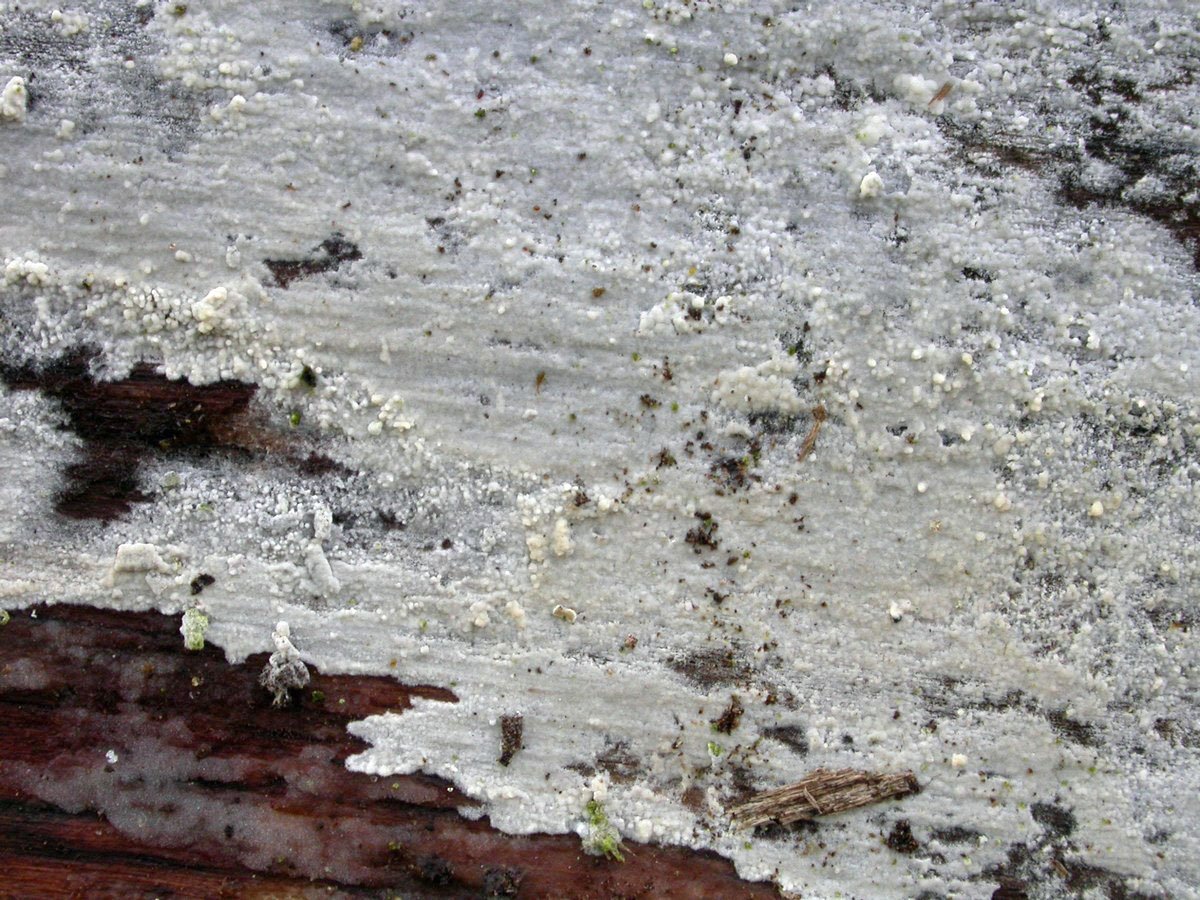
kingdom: Fungi
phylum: Basidiomycota
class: Agaricomycetes
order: Cantharellales
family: Hydnaceae
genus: Sistotrema
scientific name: Sistotrema brinkmannii
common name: bønnesporet kroneskorpe
